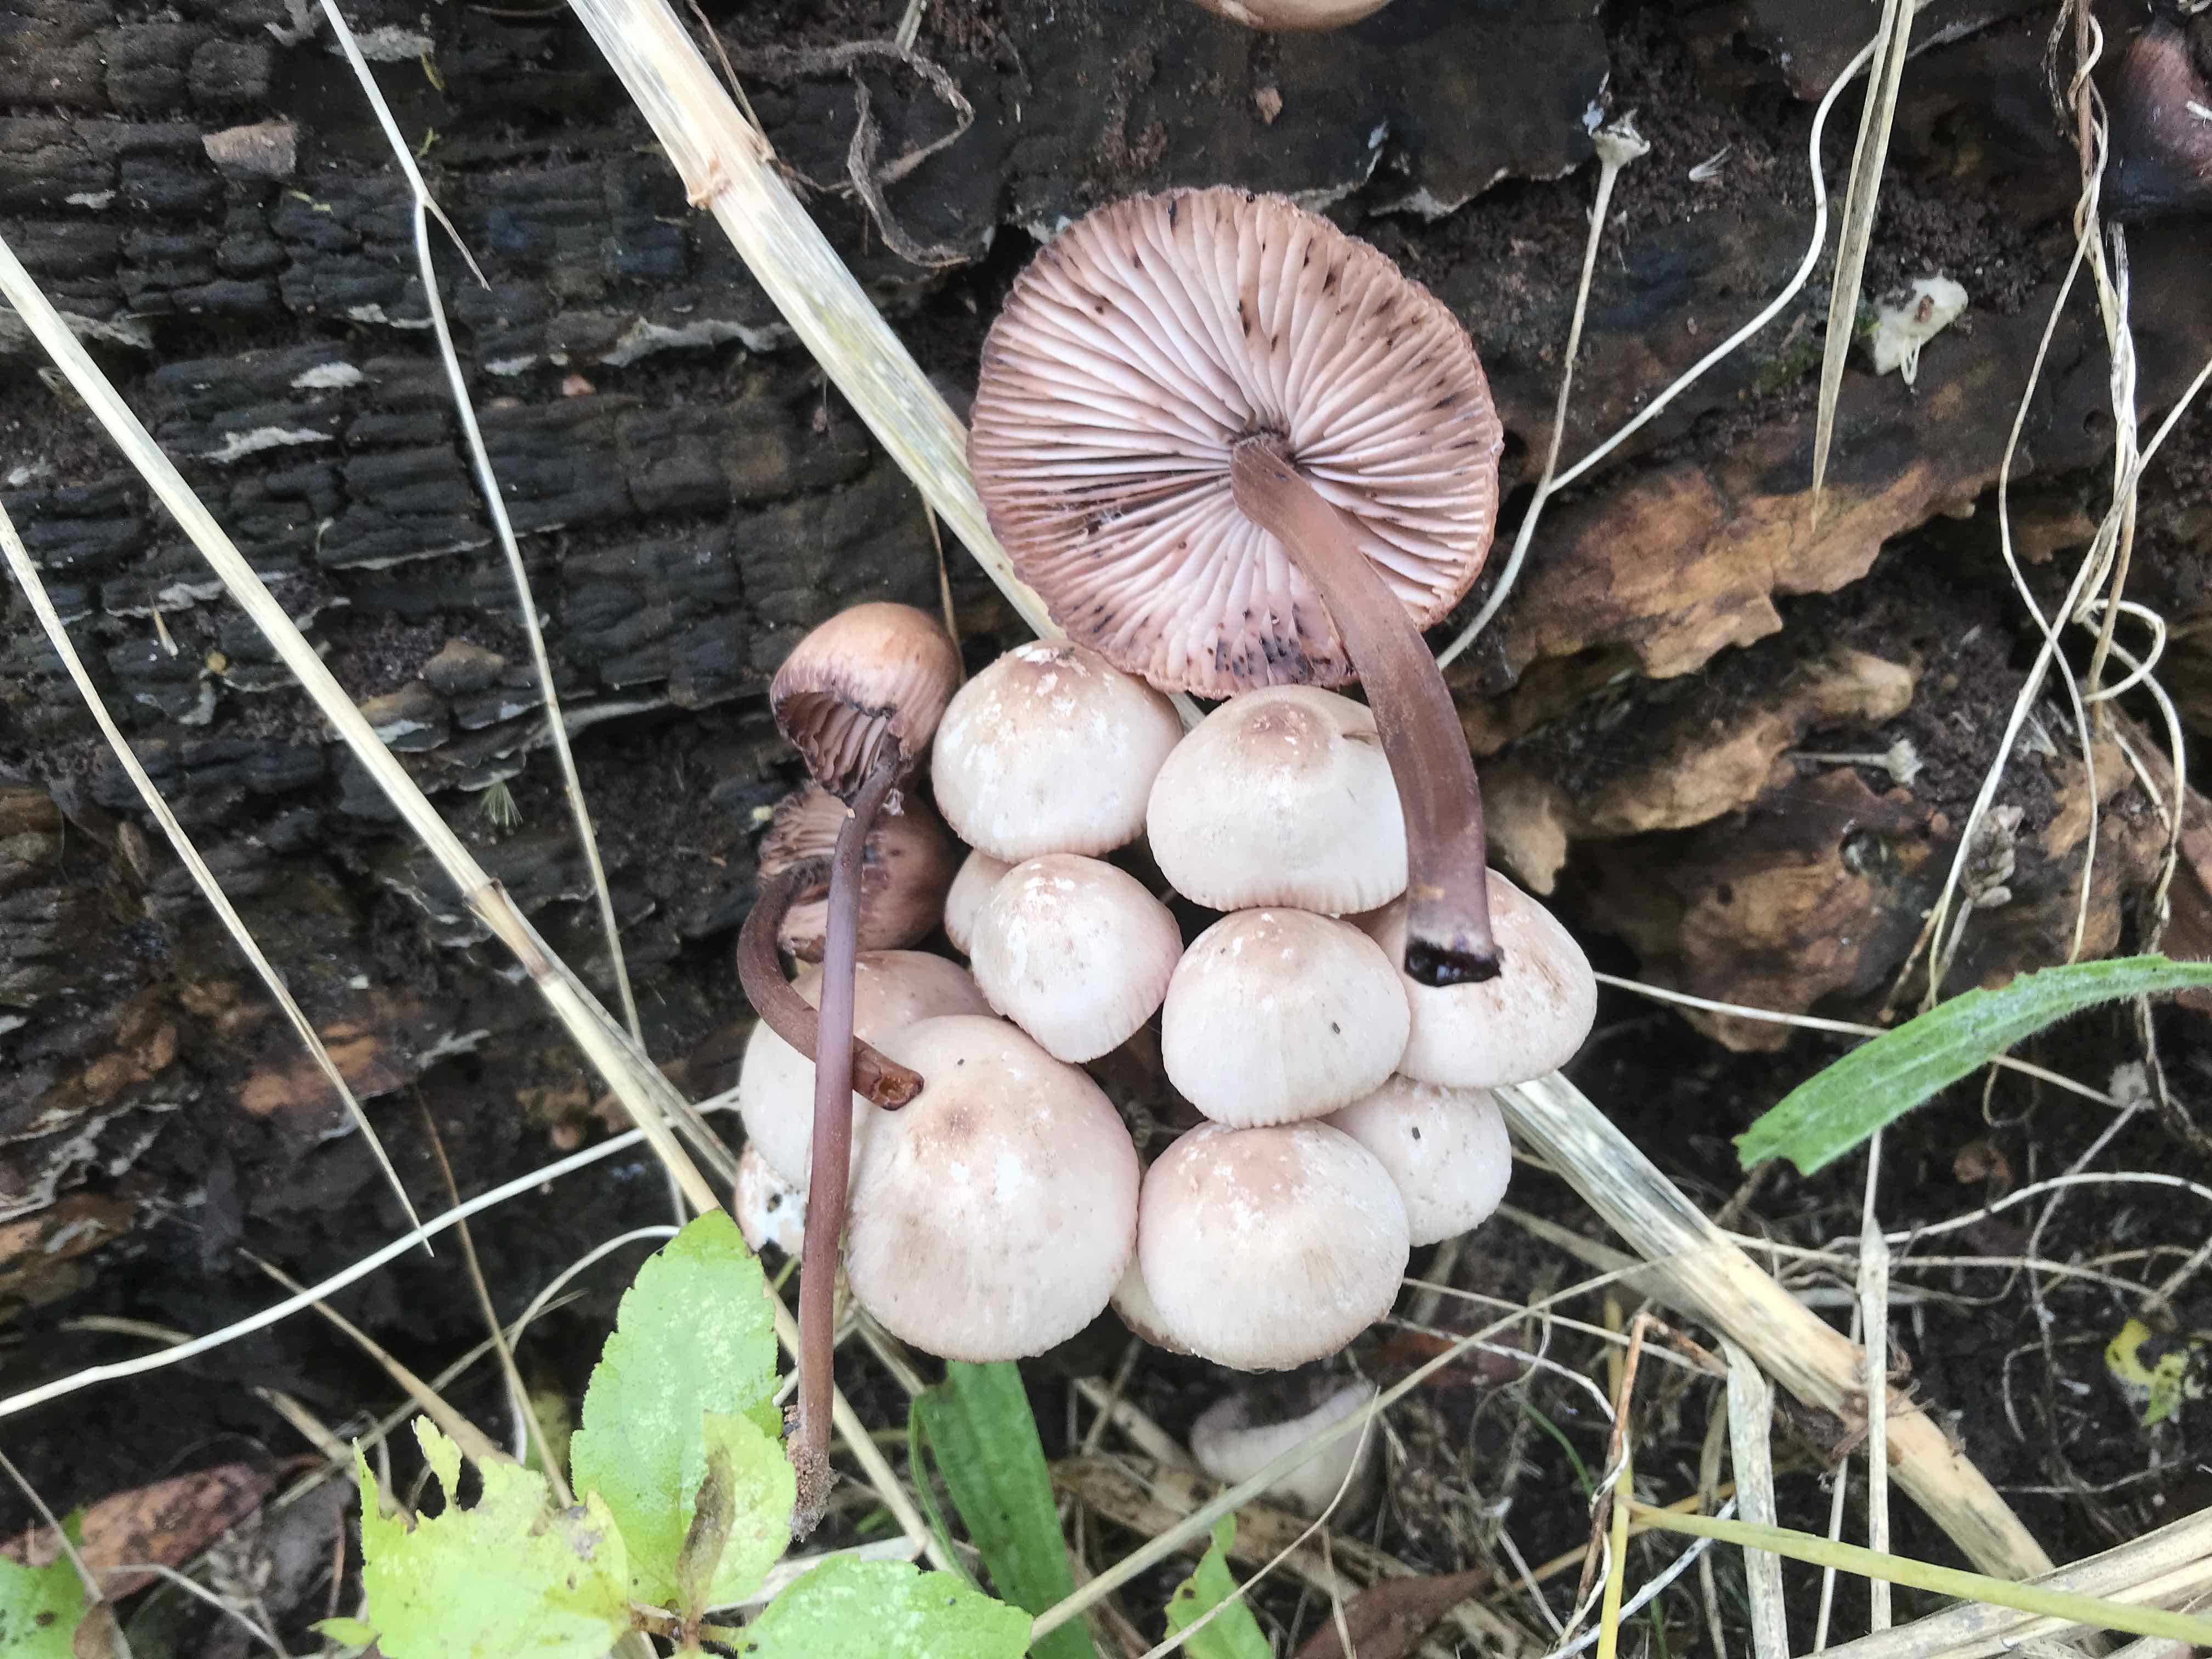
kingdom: Fungi
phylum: Basidiomycota
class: Agaricomycetes
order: Agaricales
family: Mycenaceae
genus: Mycena
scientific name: Mycena haematopus
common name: blødende huesvamp
